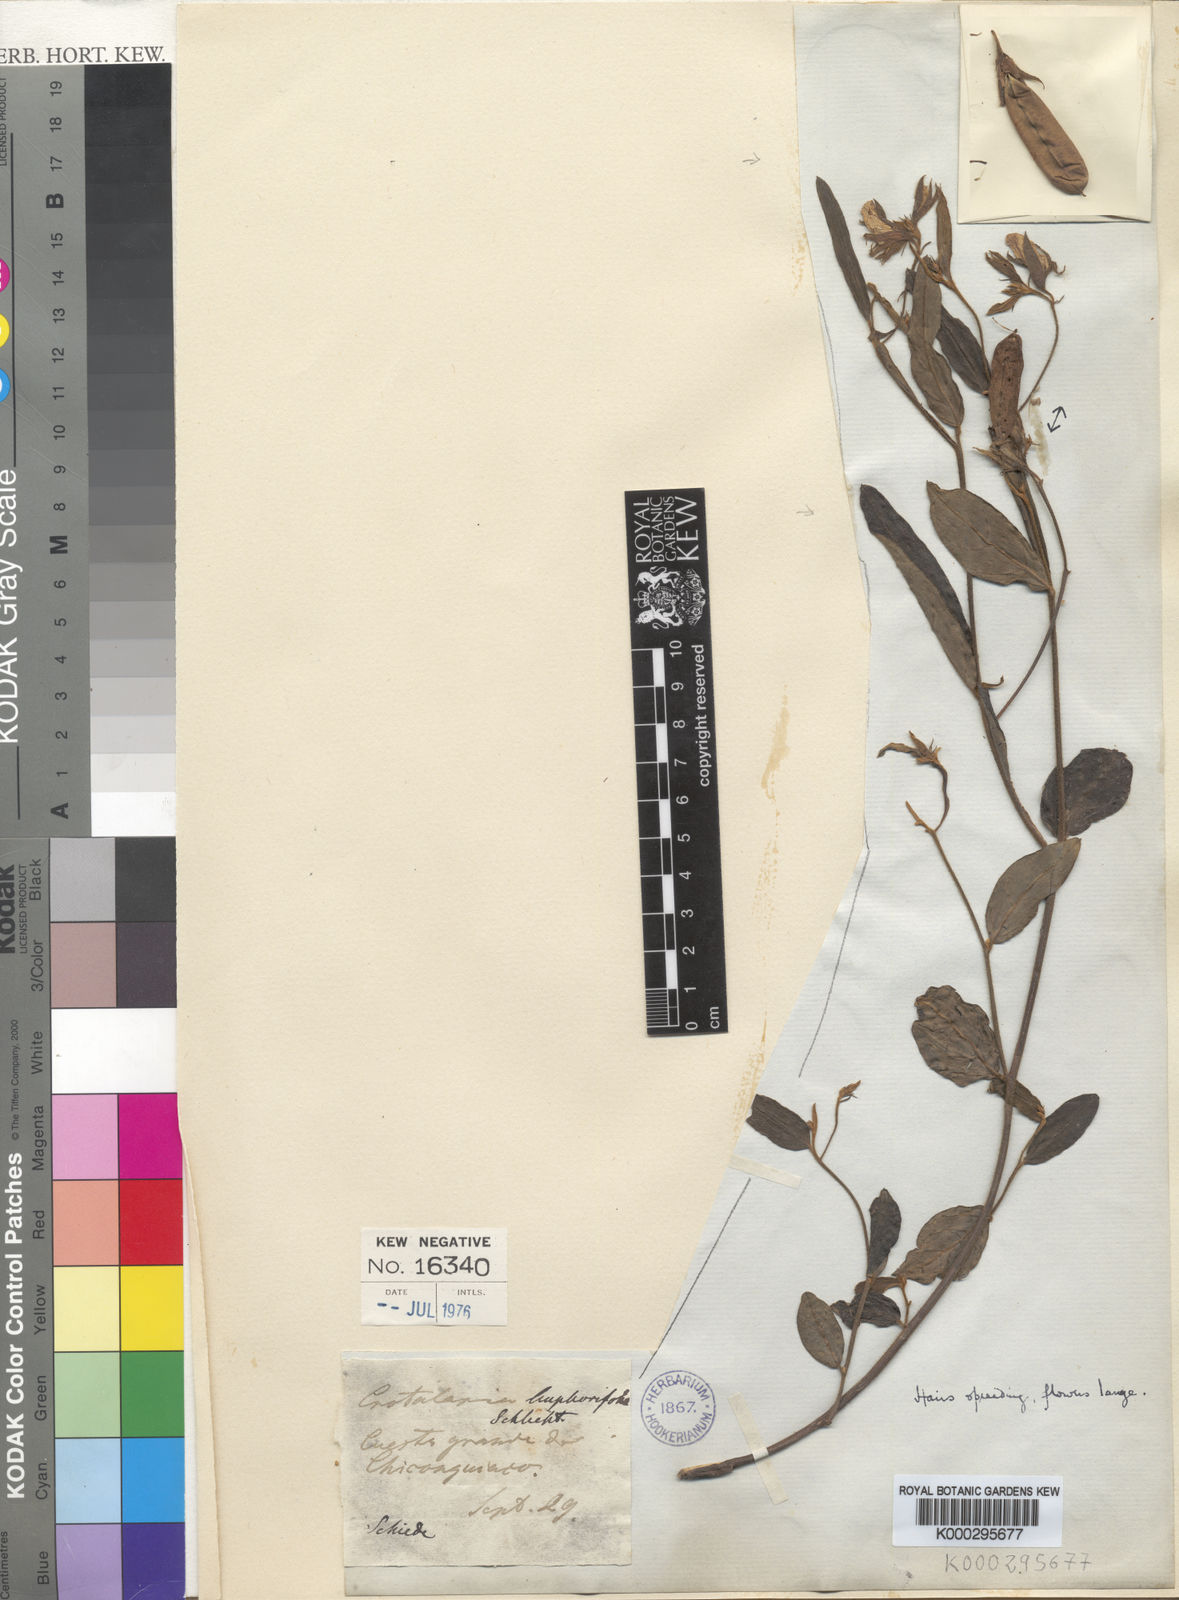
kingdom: Plantae
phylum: Tracheophyta
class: Magnoliopsida
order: Fabales
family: Fabaceae
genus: Crotalaria
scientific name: Crotalaria bupleurifolia
